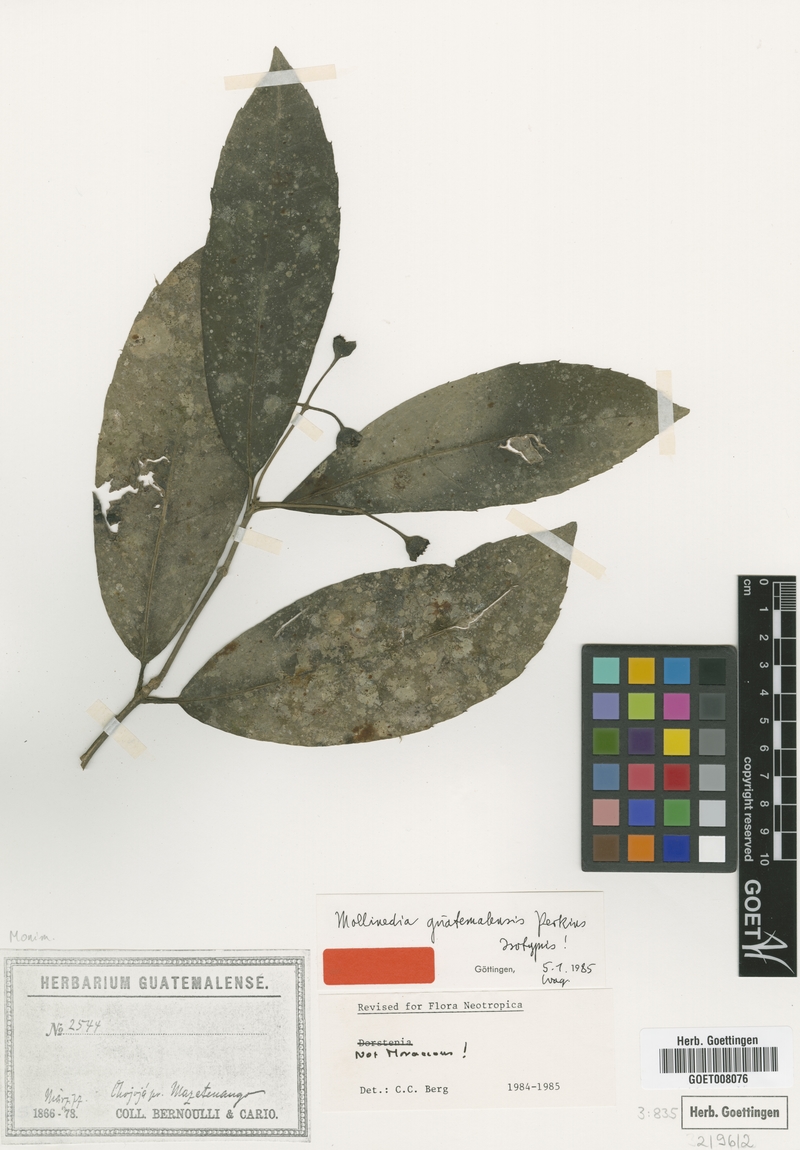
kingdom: Plantae
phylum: Tracheophyta
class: Magnoliopsida
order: Laurales
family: Monimiaceae
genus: Mollinedia
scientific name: Mollinedia viridiflora
